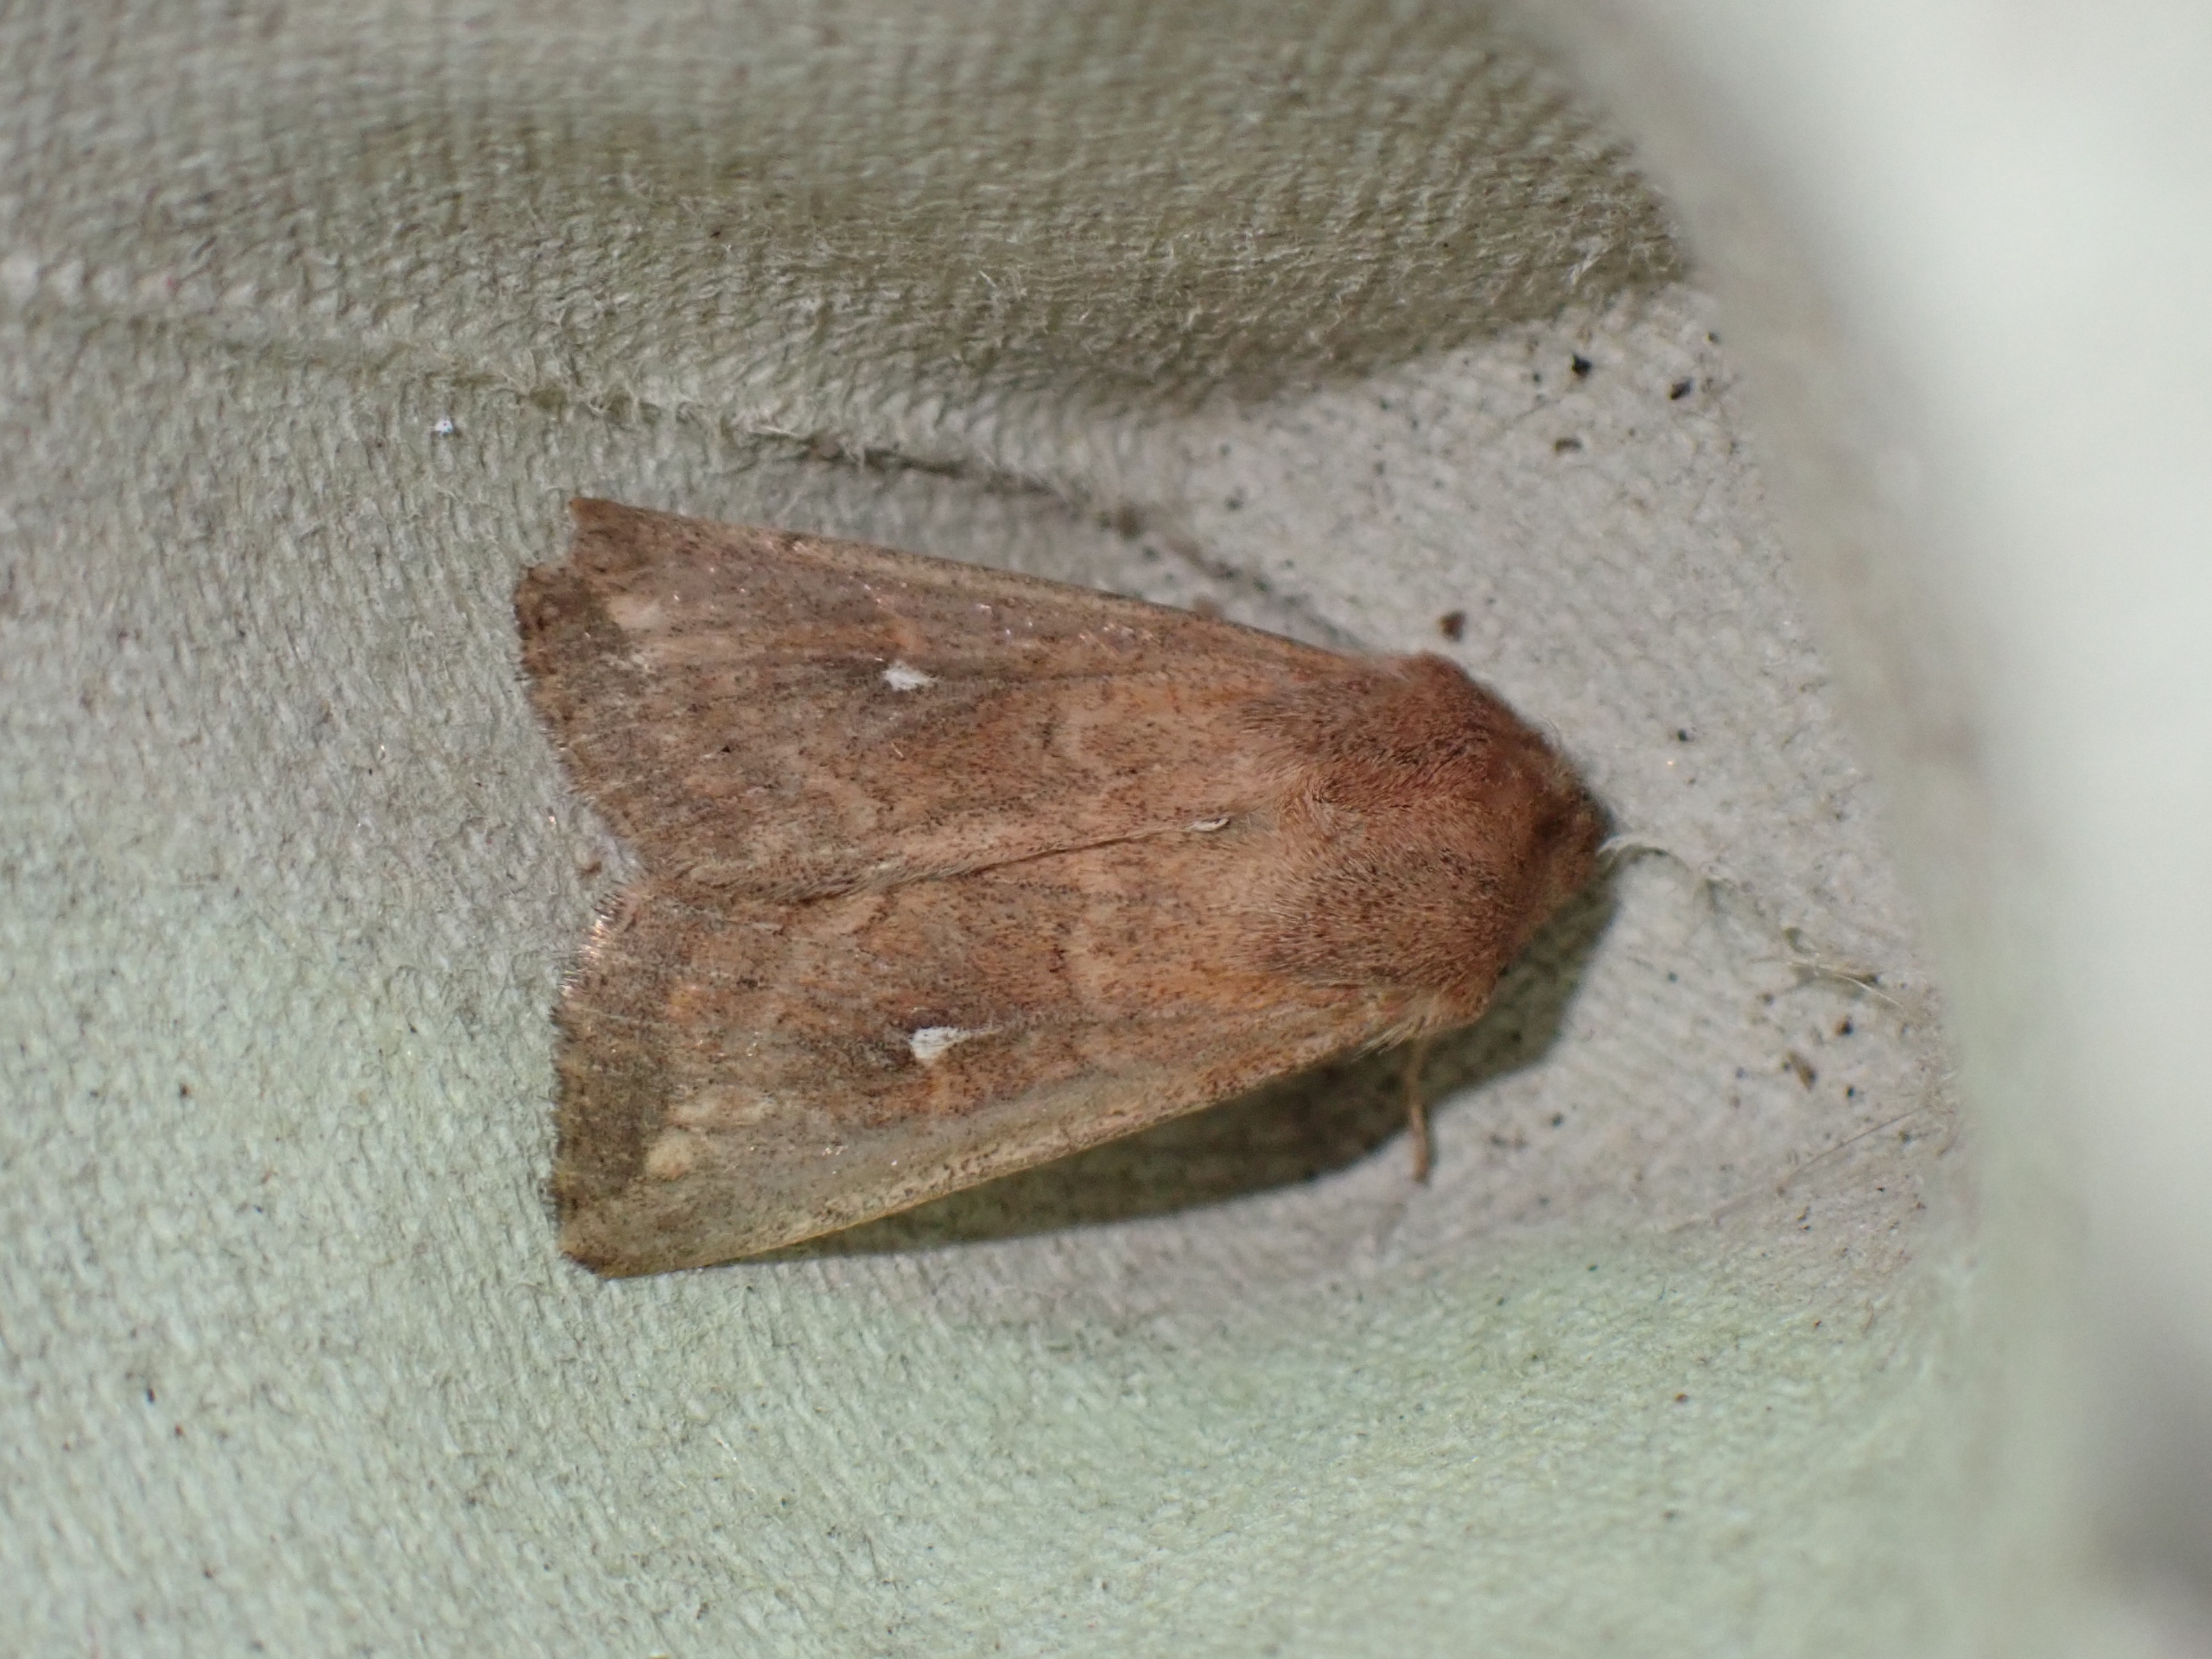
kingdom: Animalia
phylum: Arthropoda
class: Insecta
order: Lepidoptera
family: Noctuidae
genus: Mythimna
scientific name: Mythimna albipuncta
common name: Hvid-punkt græsugle
